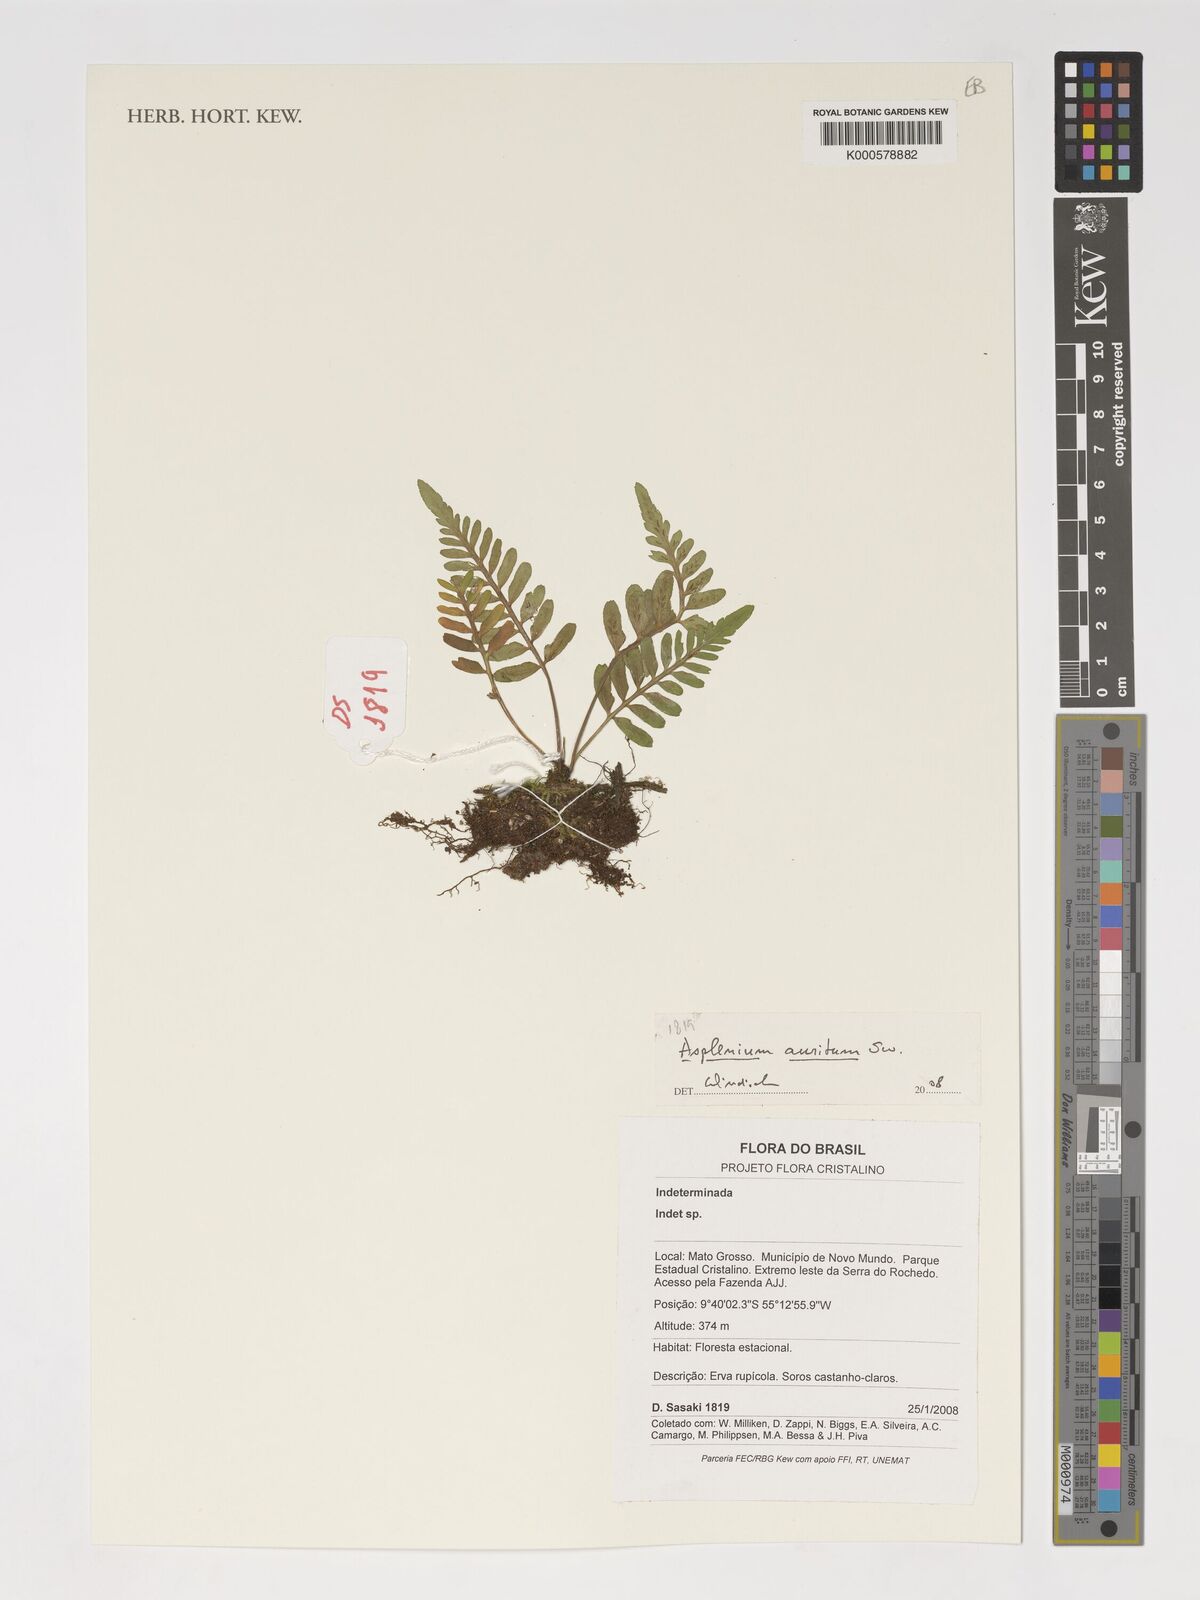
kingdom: Plantae
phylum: Tracheophyta
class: Polypodiopsida
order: Polypodiales
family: Aspleniaceae
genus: Asplenium
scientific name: Asplenium auritum
